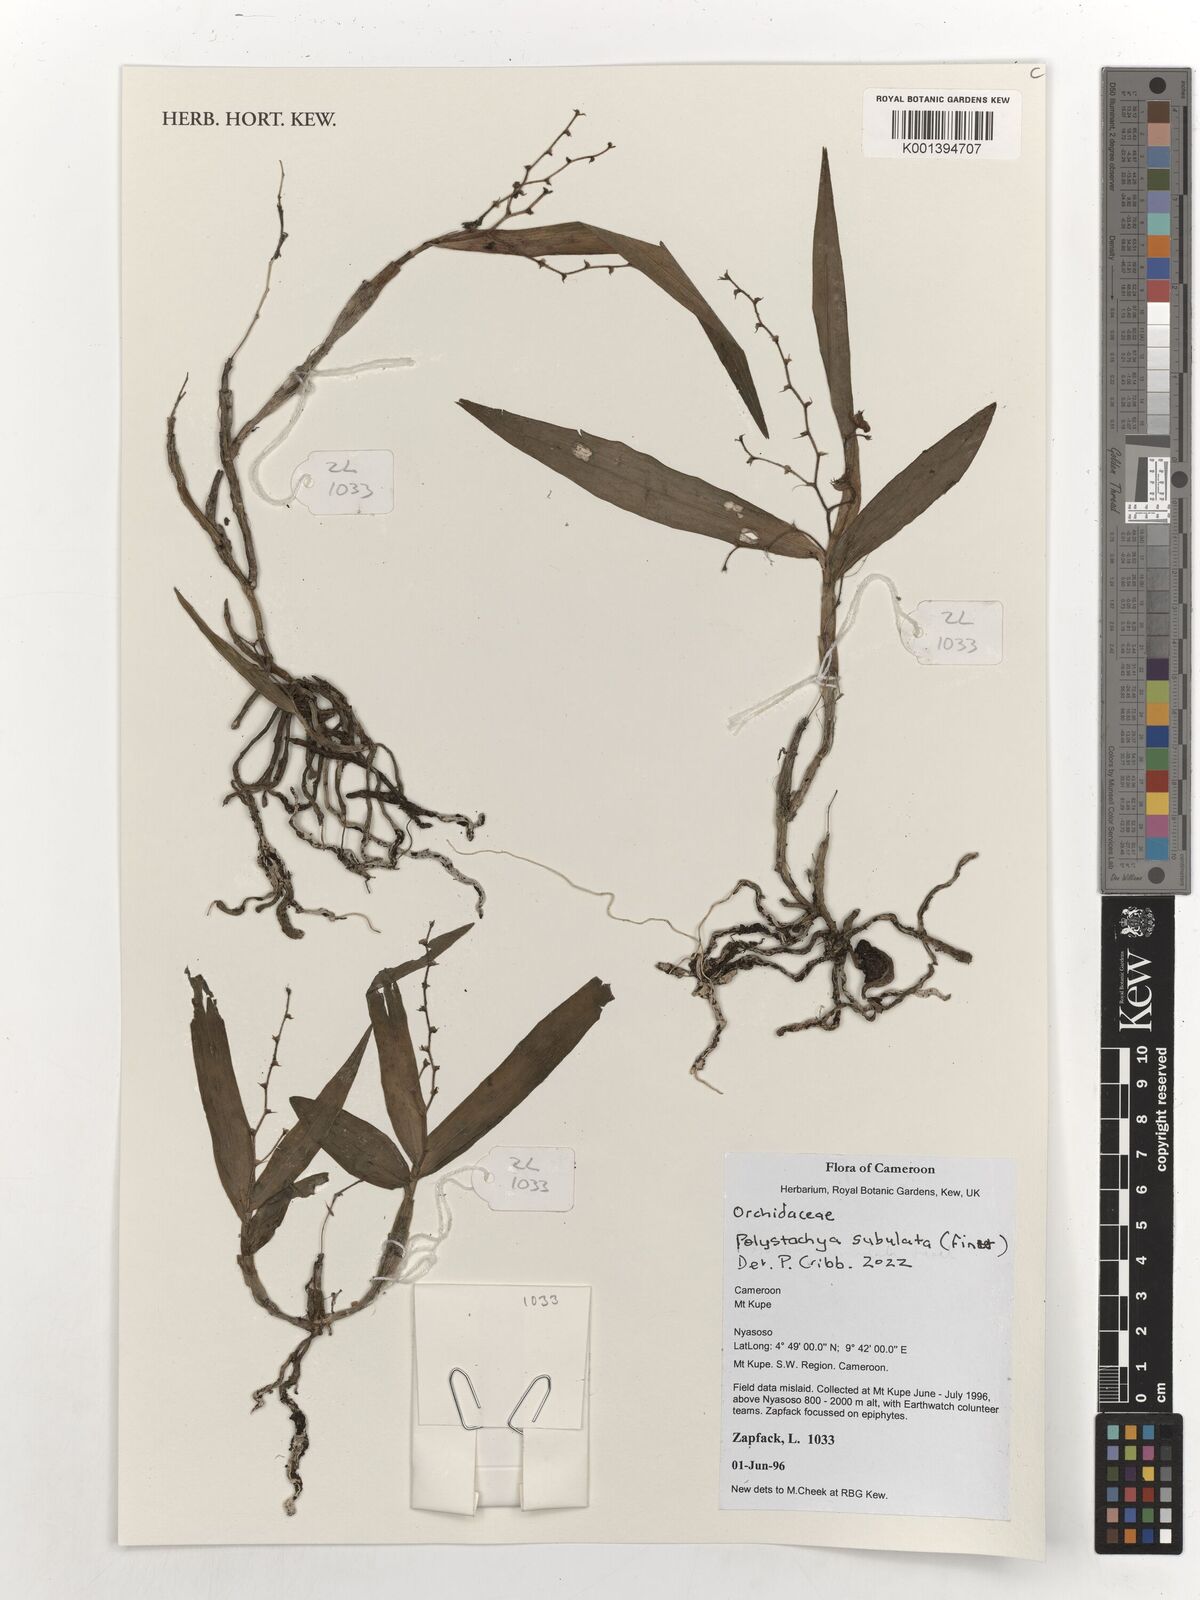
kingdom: Plantae
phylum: Tracheophyta
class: Liliopsida
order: Asparagales
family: Orchidaceae
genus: Polystachya
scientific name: Polystachya subulata
